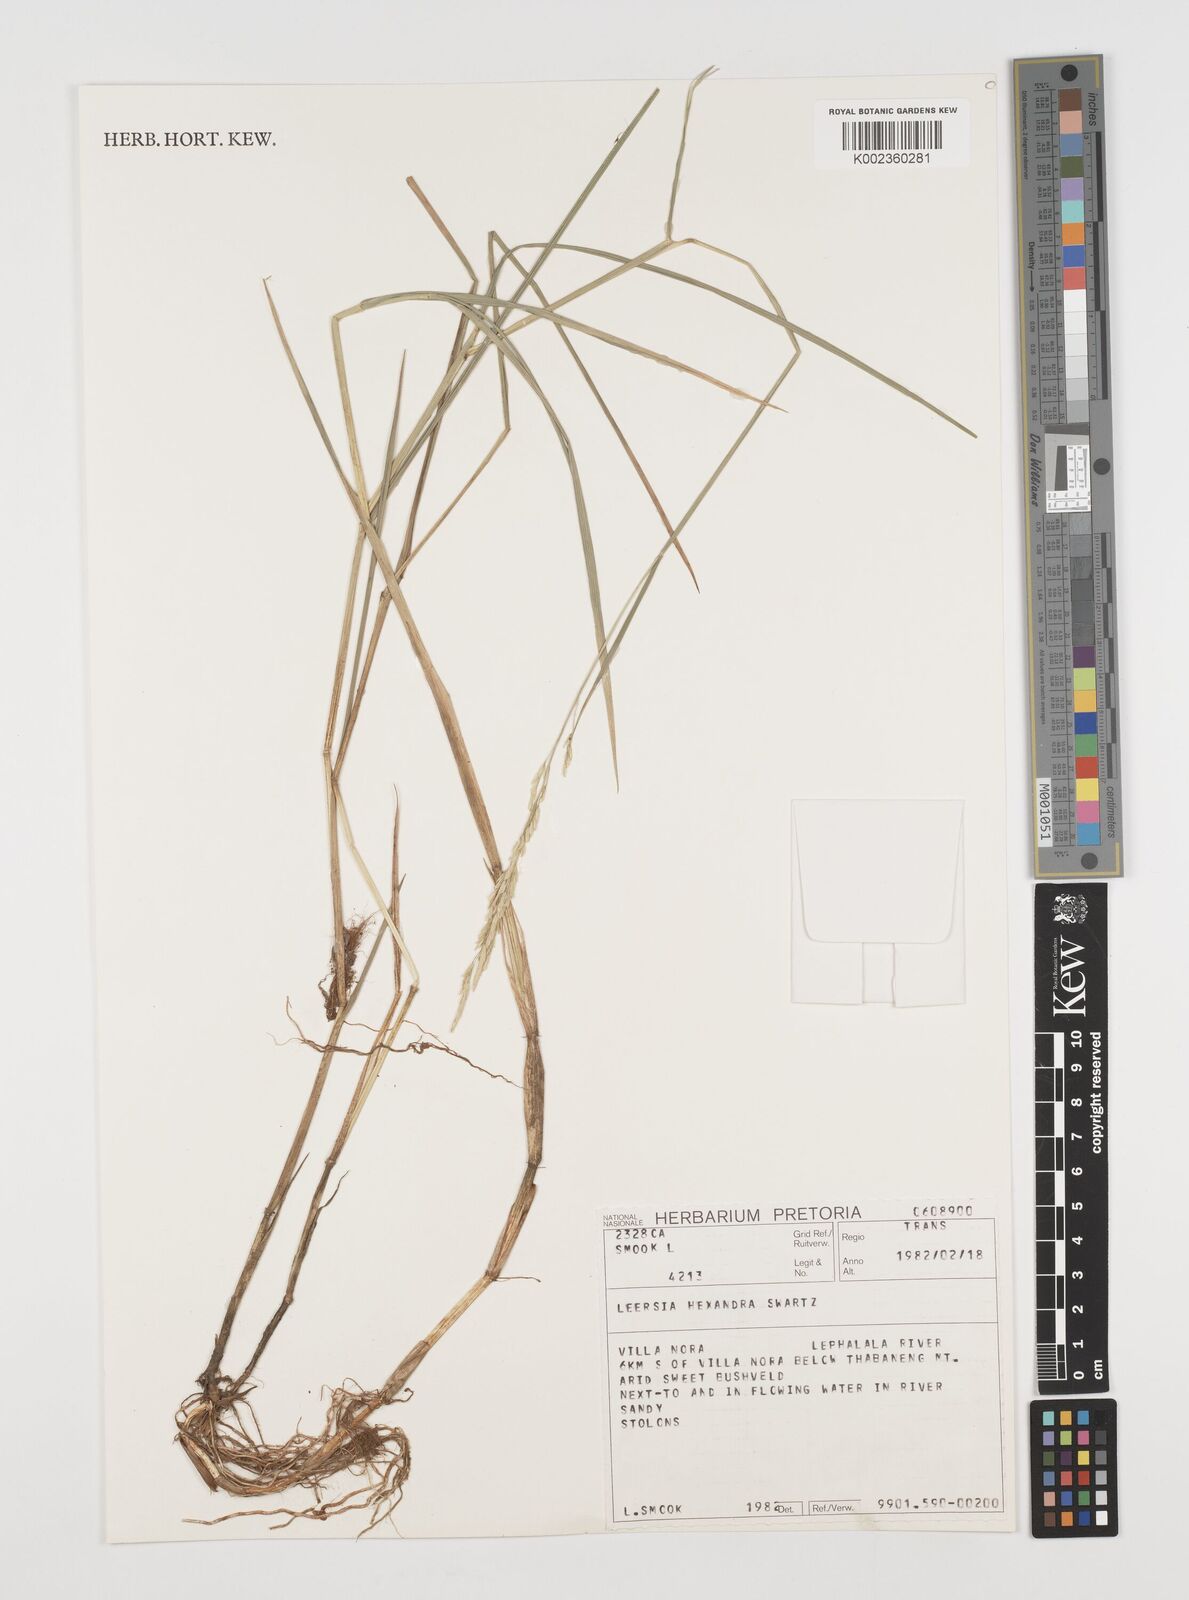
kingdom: Plantae
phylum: Tracheophyta
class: Liliopsida
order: Poales
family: Poaceae
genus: Leersia
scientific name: Leersia hexandra
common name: Southern cut grass
